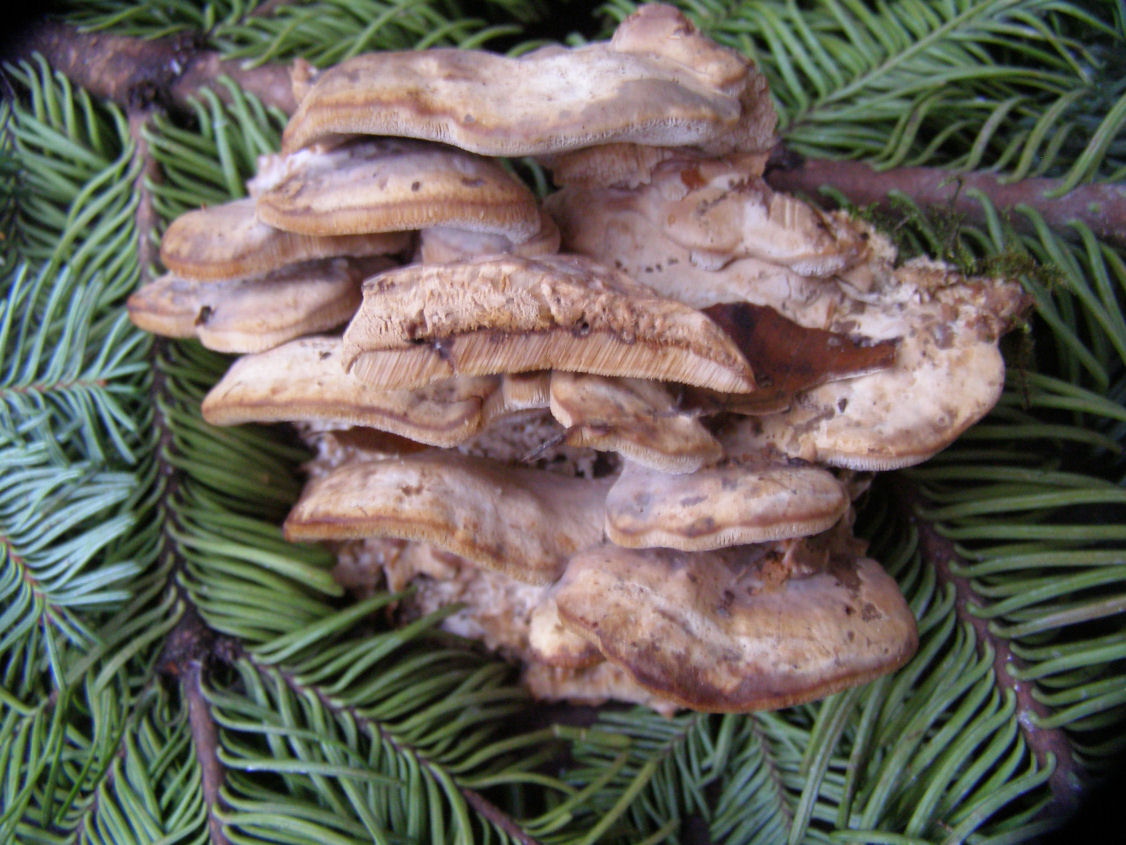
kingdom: Fungi
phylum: Basidiomycota
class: Agaricomycetes
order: Polyporales
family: Phanerochaetaceae
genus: Bjerkandera
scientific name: Bjerkandera fumosa
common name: grågul sodporesvamp
